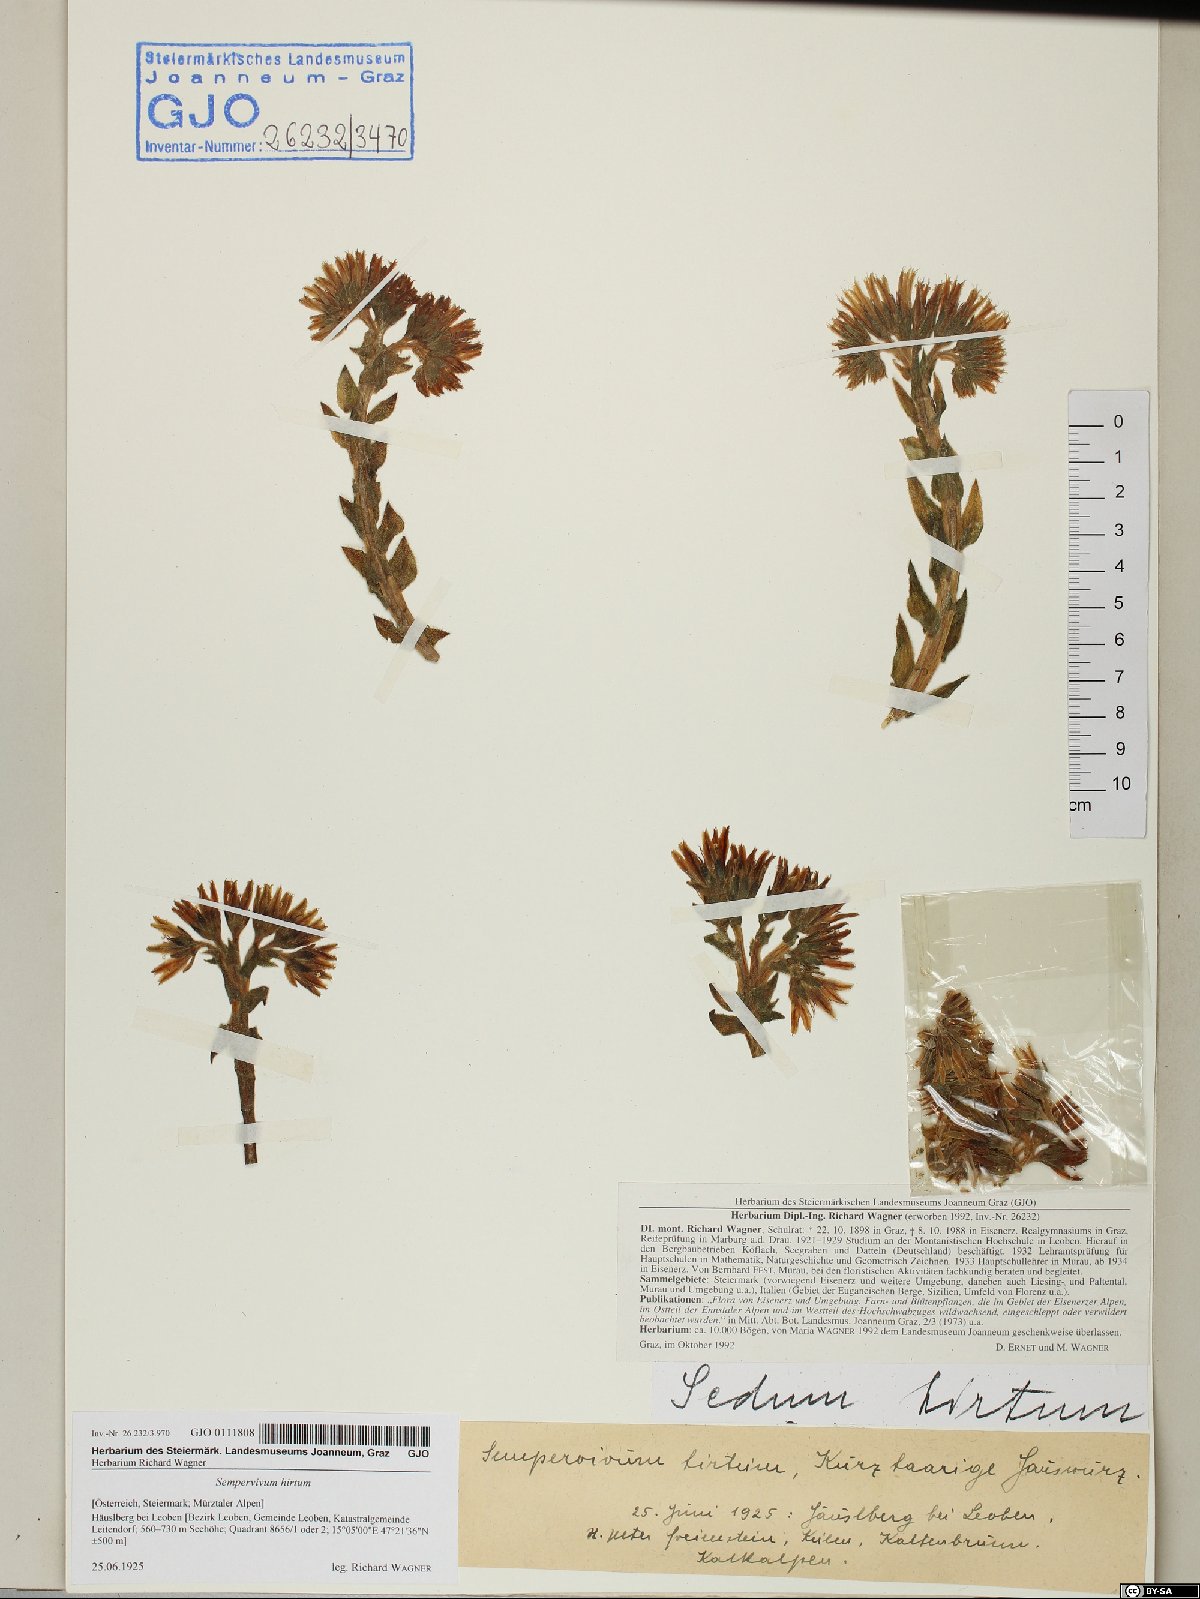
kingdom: Plantae
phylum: Tracheophyta
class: Magnoliopsida
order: Saxifragales
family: Crassulaceae
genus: Sempervivum
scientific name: Sempervivum globiferum
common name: Rolling hen-and-chicks
